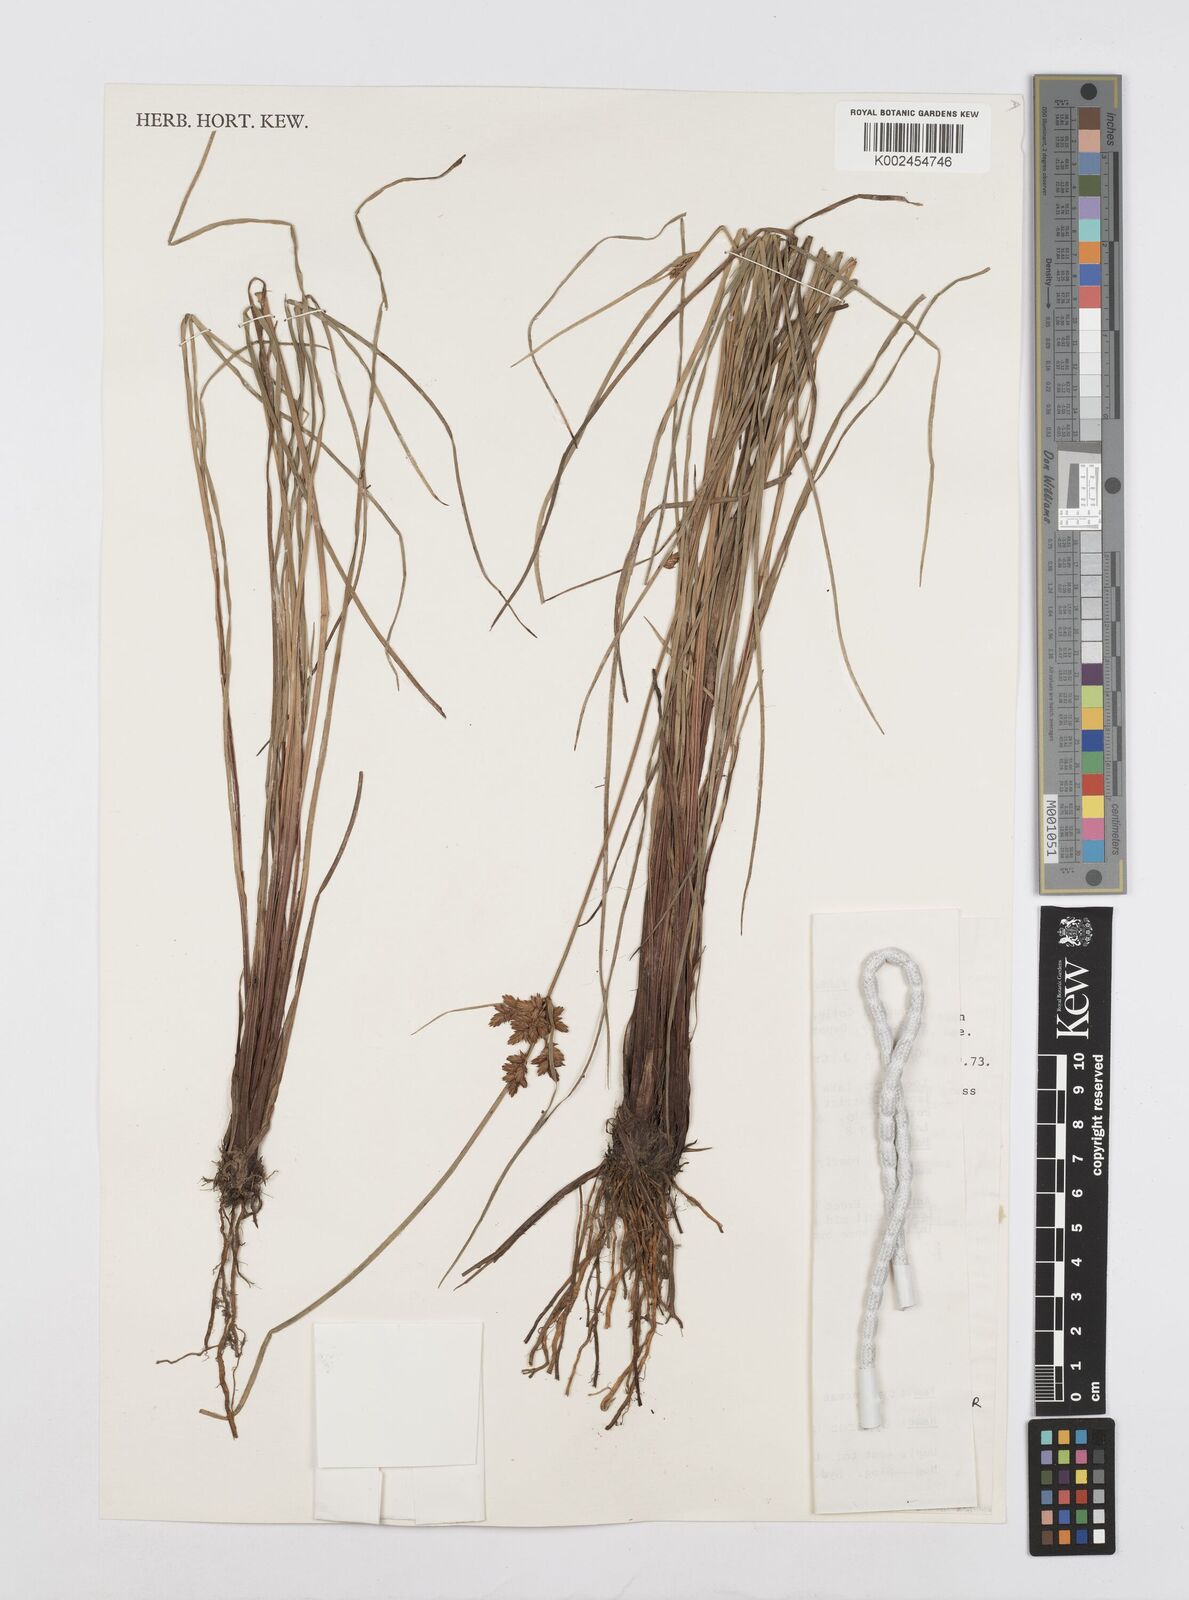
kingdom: Plantae
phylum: Tracheophyta
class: Liliopsida
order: Poales
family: Cyperaceae
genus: Cyperus
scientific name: Cyperus unioloides
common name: Uniola flatsedge
